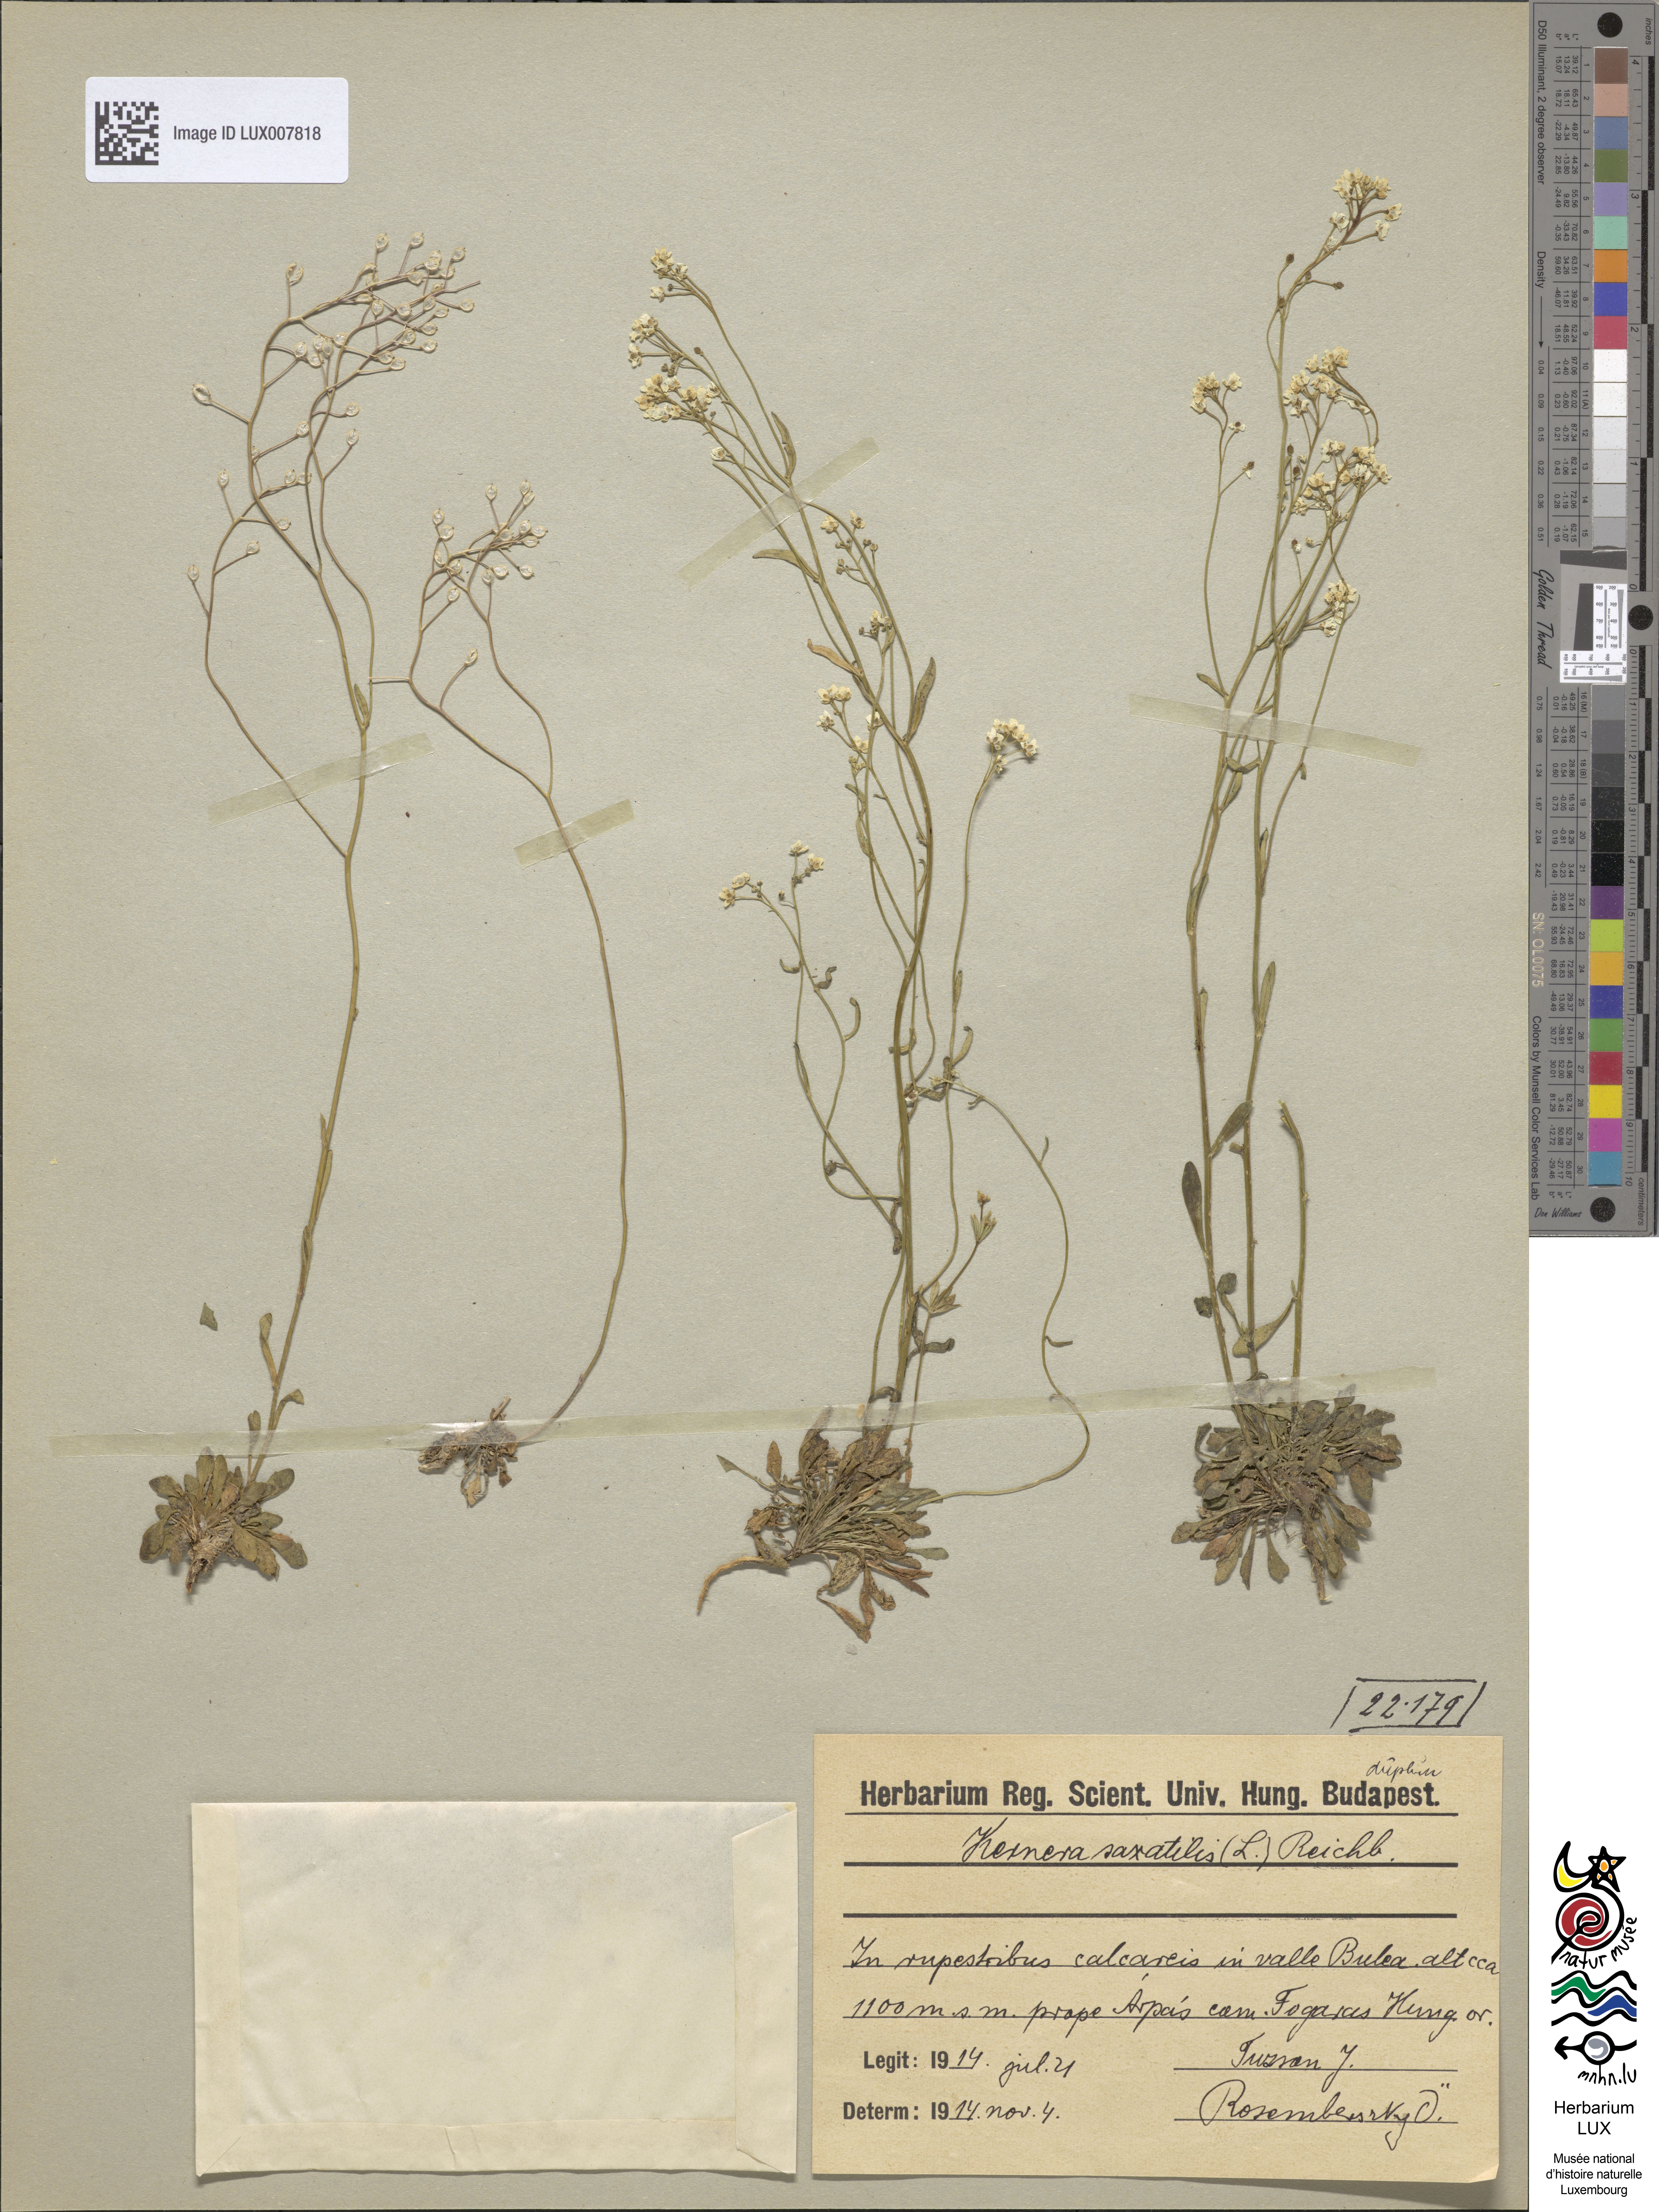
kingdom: Plantae
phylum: Tracheophyta
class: Magnoliopsida
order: Brassicales
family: Brassicaceae
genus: Kernera
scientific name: Kernera saxatilis
